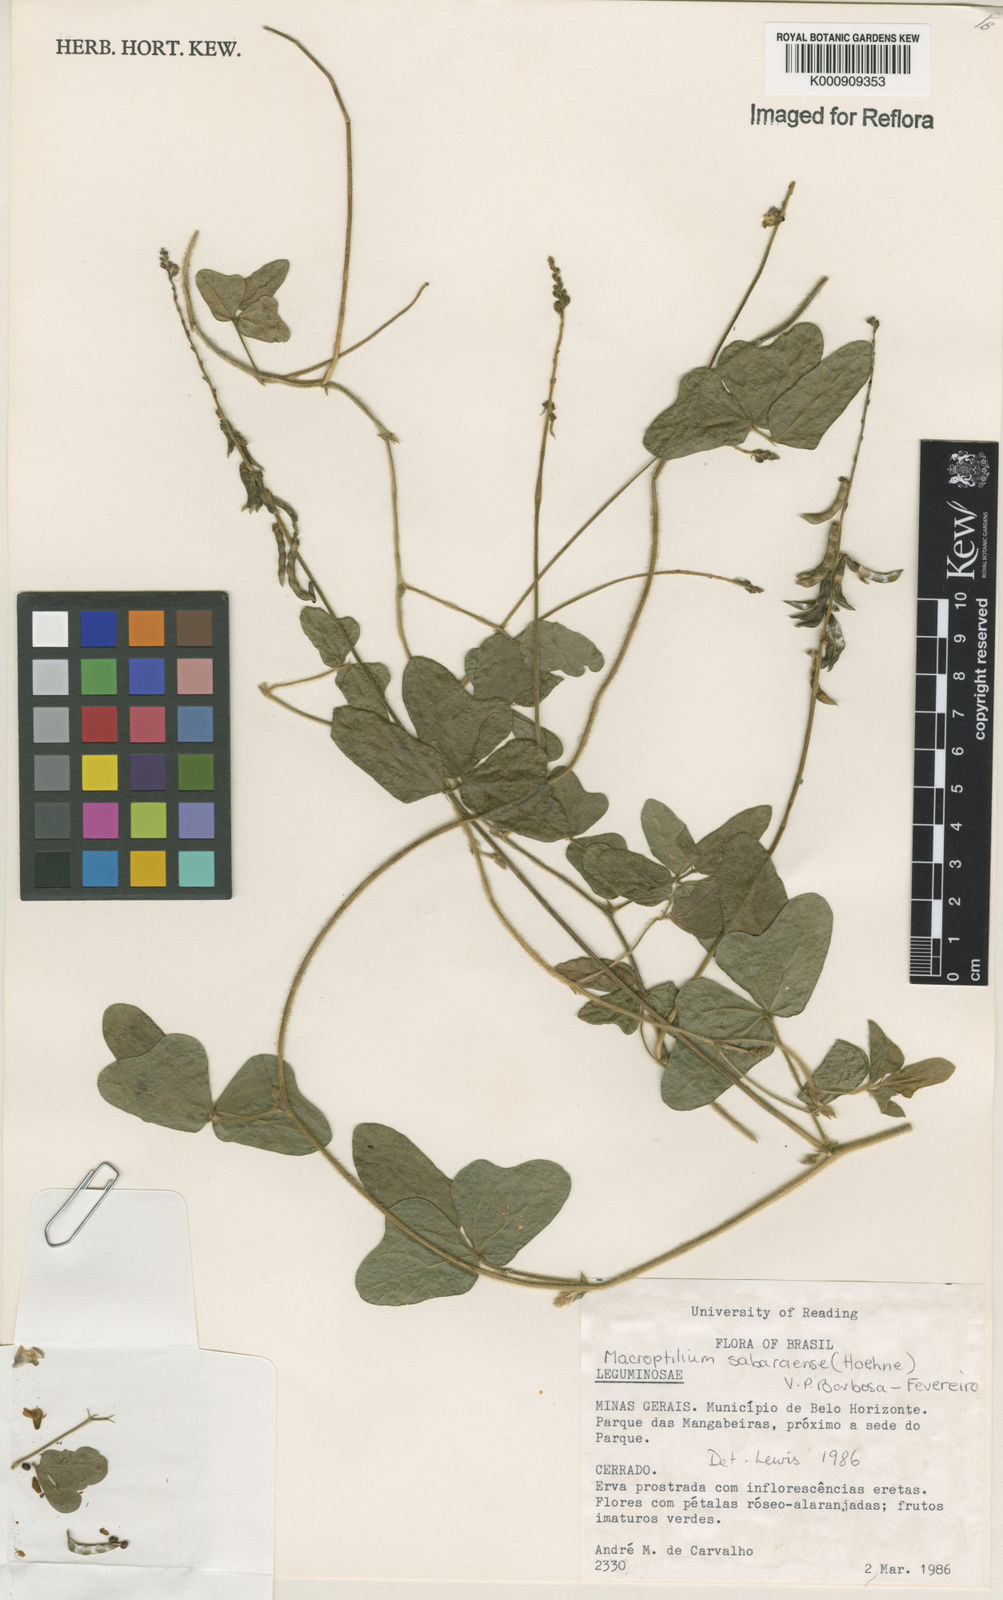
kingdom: Plantae
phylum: Tracheophyta
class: Magnoliopsida
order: Fabales
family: Fabaceae
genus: Macroptilium
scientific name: Macroptilium sabaraense
